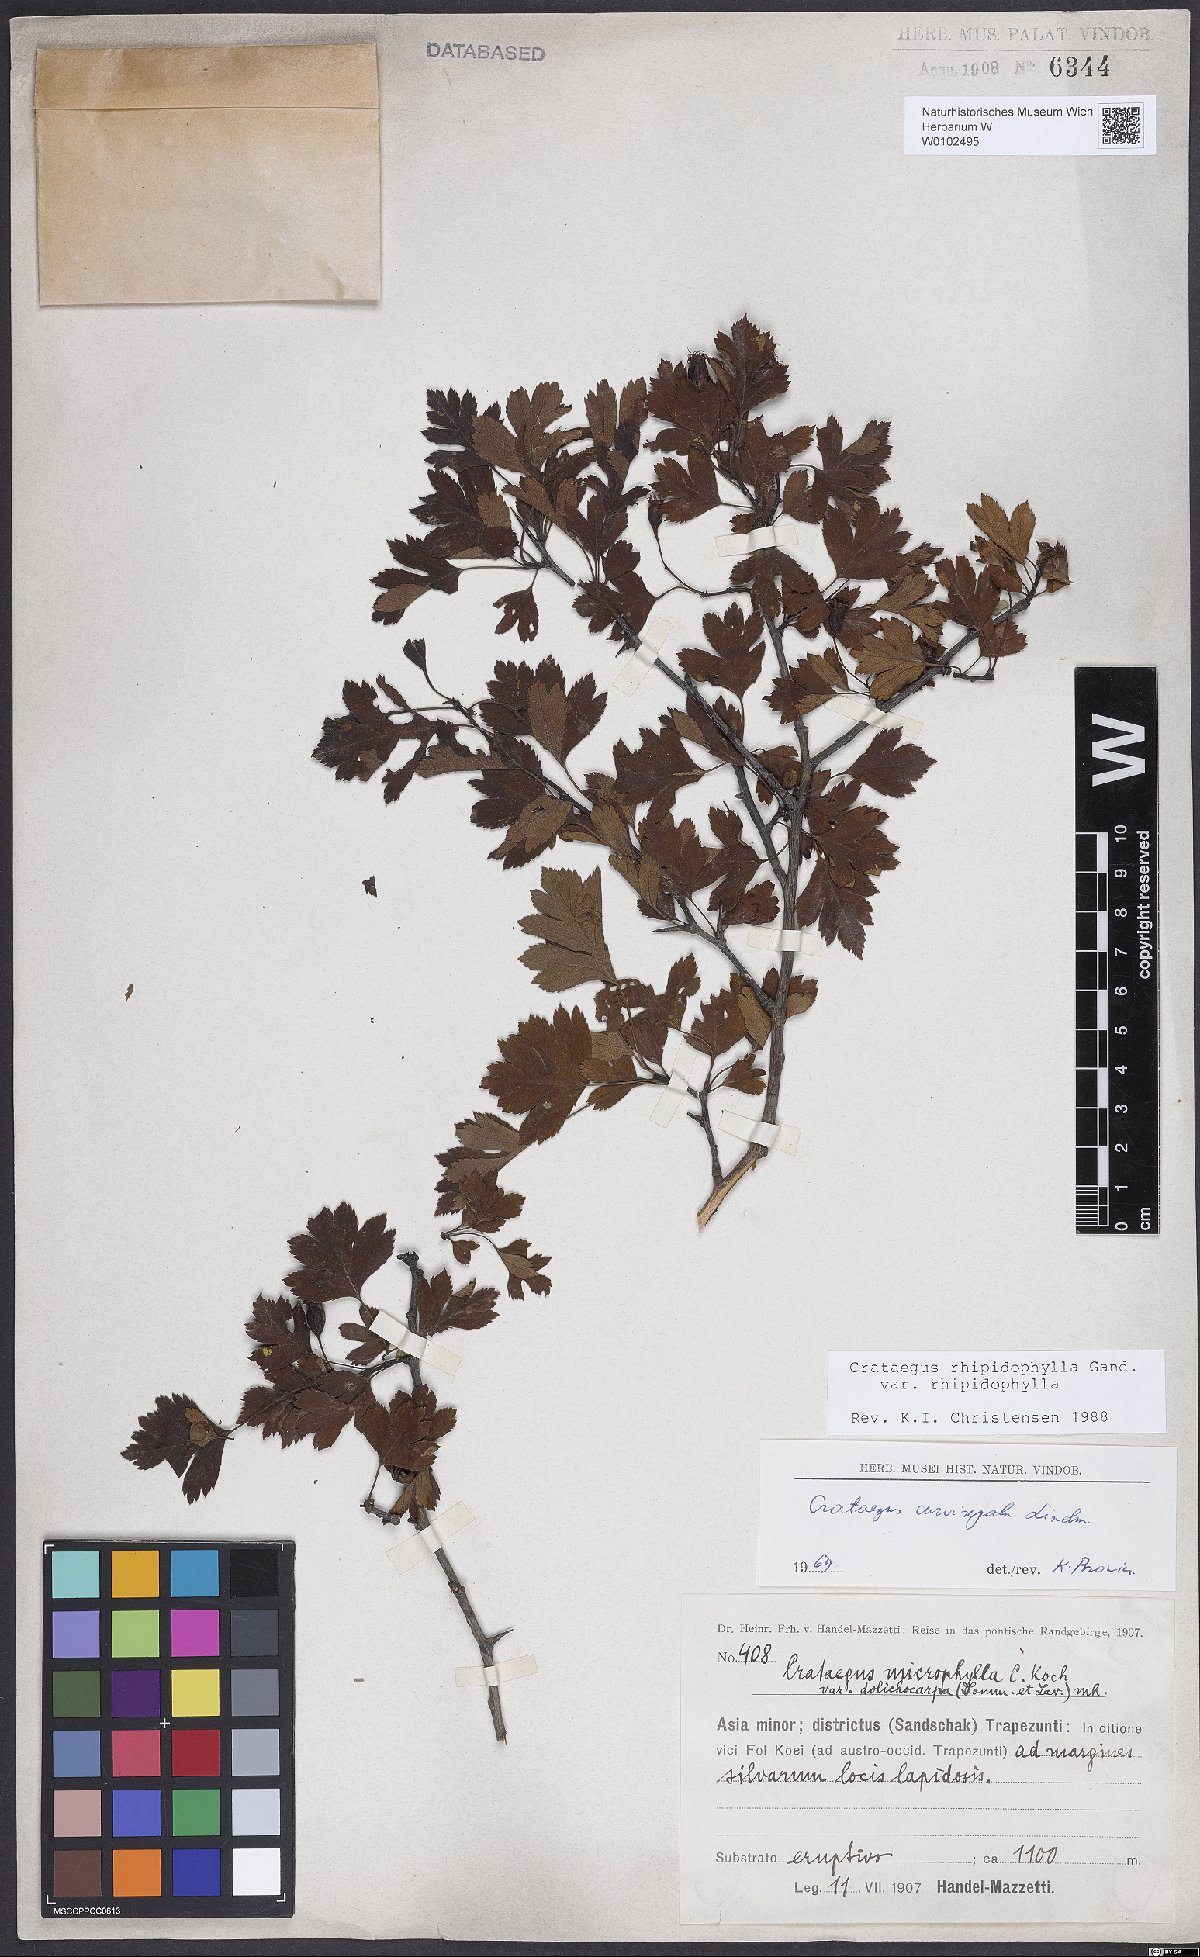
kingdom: Plantae
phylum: Tracheophyta
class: Magnoliopsida
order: Rosales
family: Rosaceae
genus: Crataegus
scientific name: Crataegus rhipidophylla
